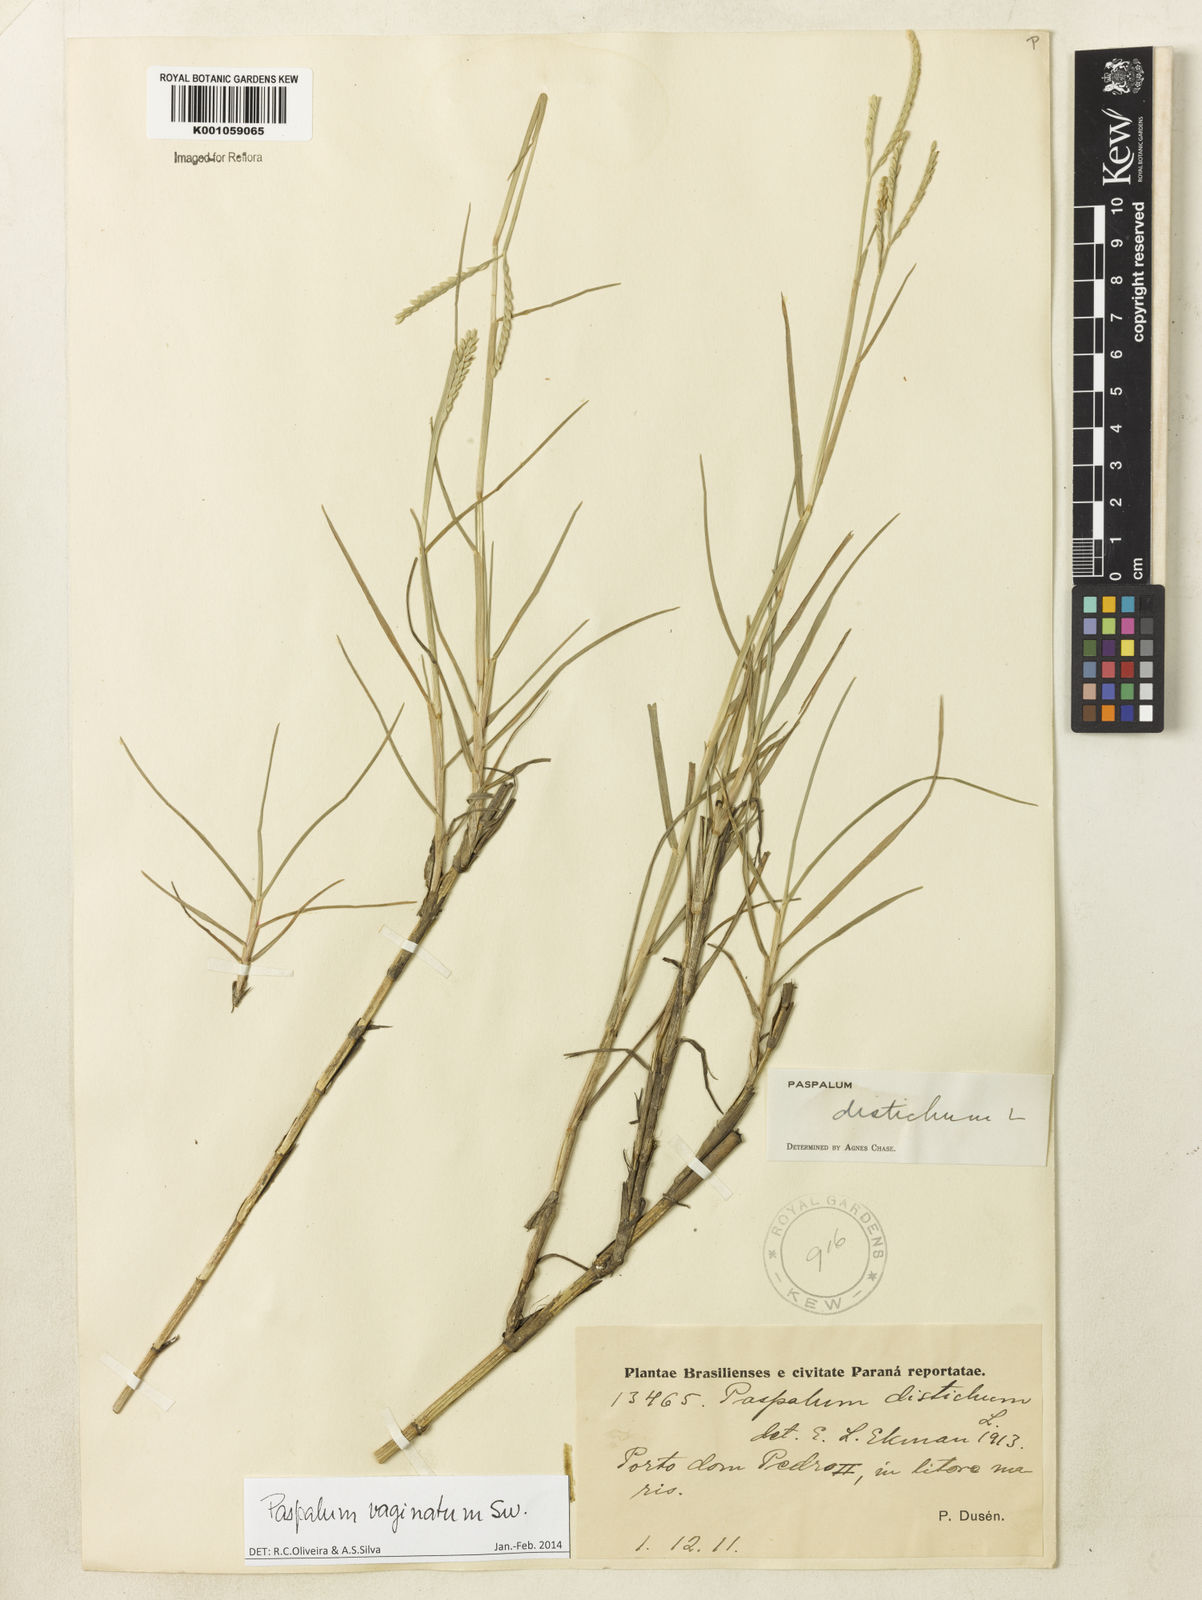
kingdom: Plantae
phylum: Tracheophyta
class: Liliopsida
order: Poales
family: Poaceae
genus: Paspalum
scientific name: Paspalum vaginatum
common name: Seashore paspalum
